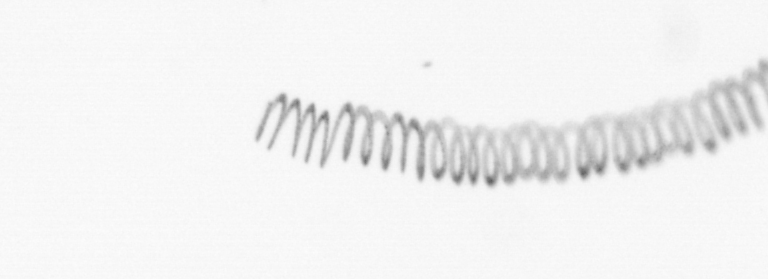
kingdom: Chromista
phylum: Ochrophyta
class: Bacillariophyceae
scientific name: Bacillariophyceae
